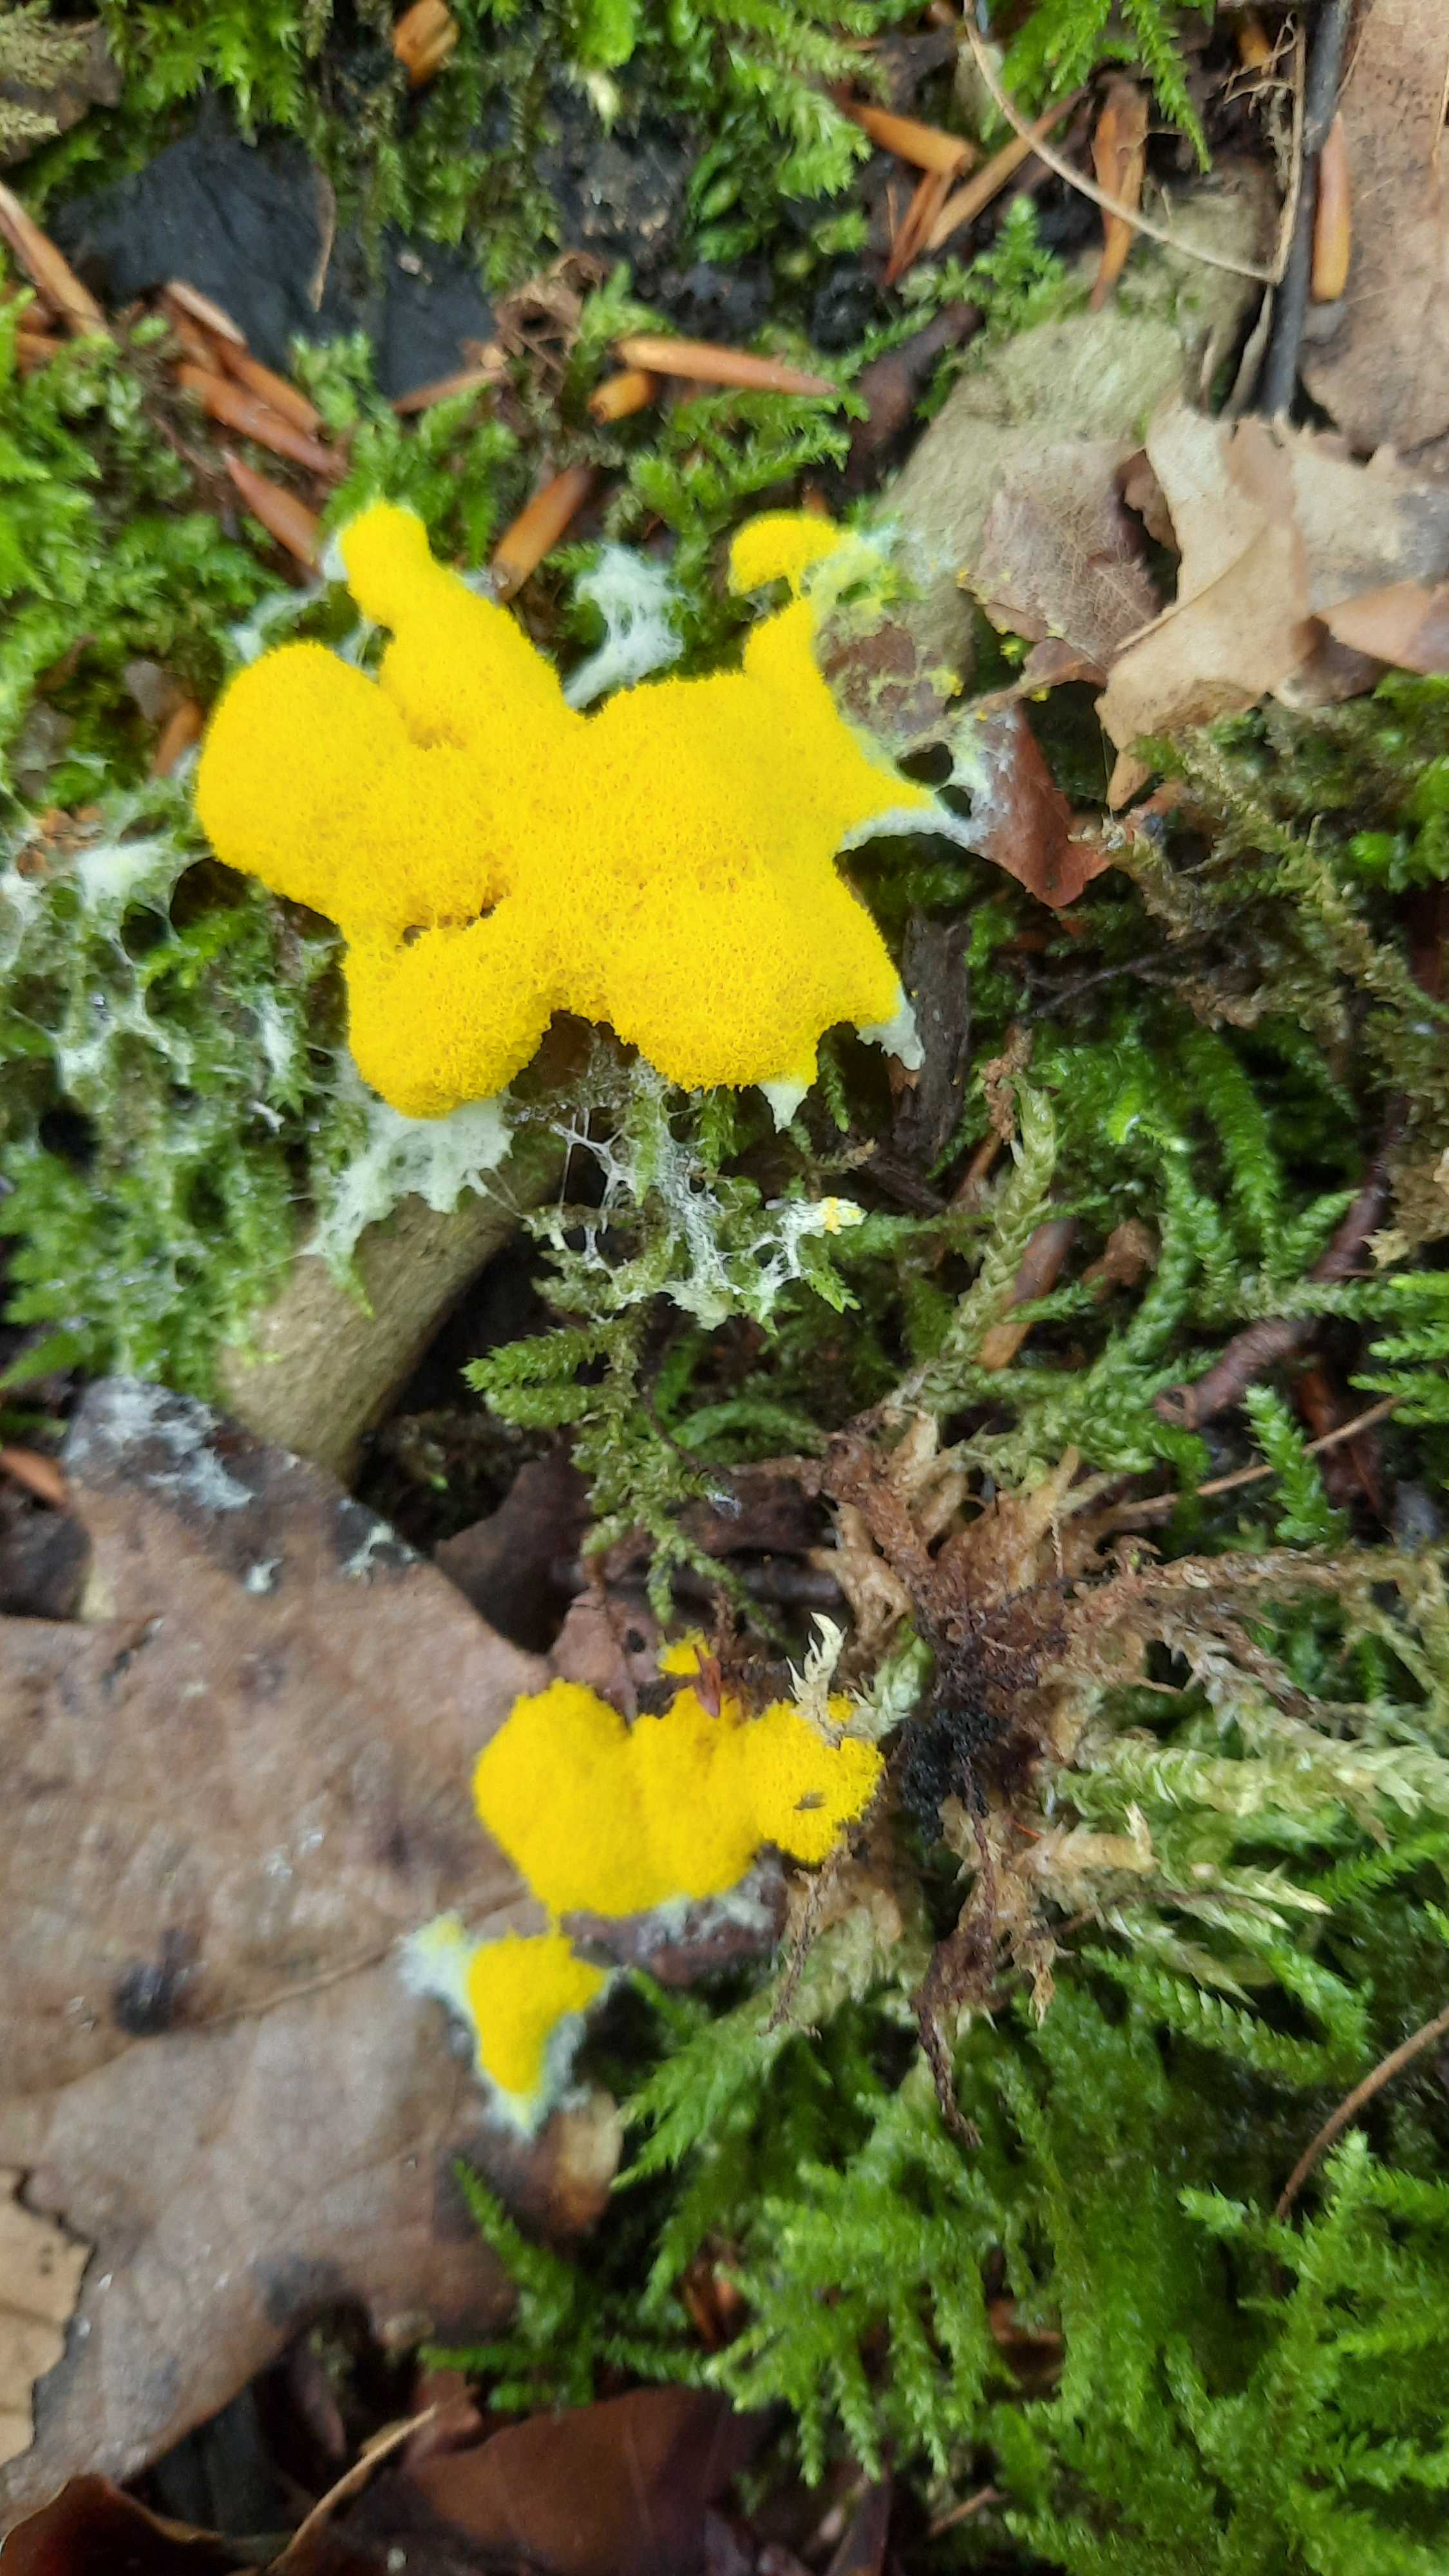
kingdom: Protozoa
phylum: Mycetozoa
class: Myxomycetes
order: Physarales
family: Physaraceae
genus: Fuligo
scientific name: Fuligo septica
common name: gul troldsmør
